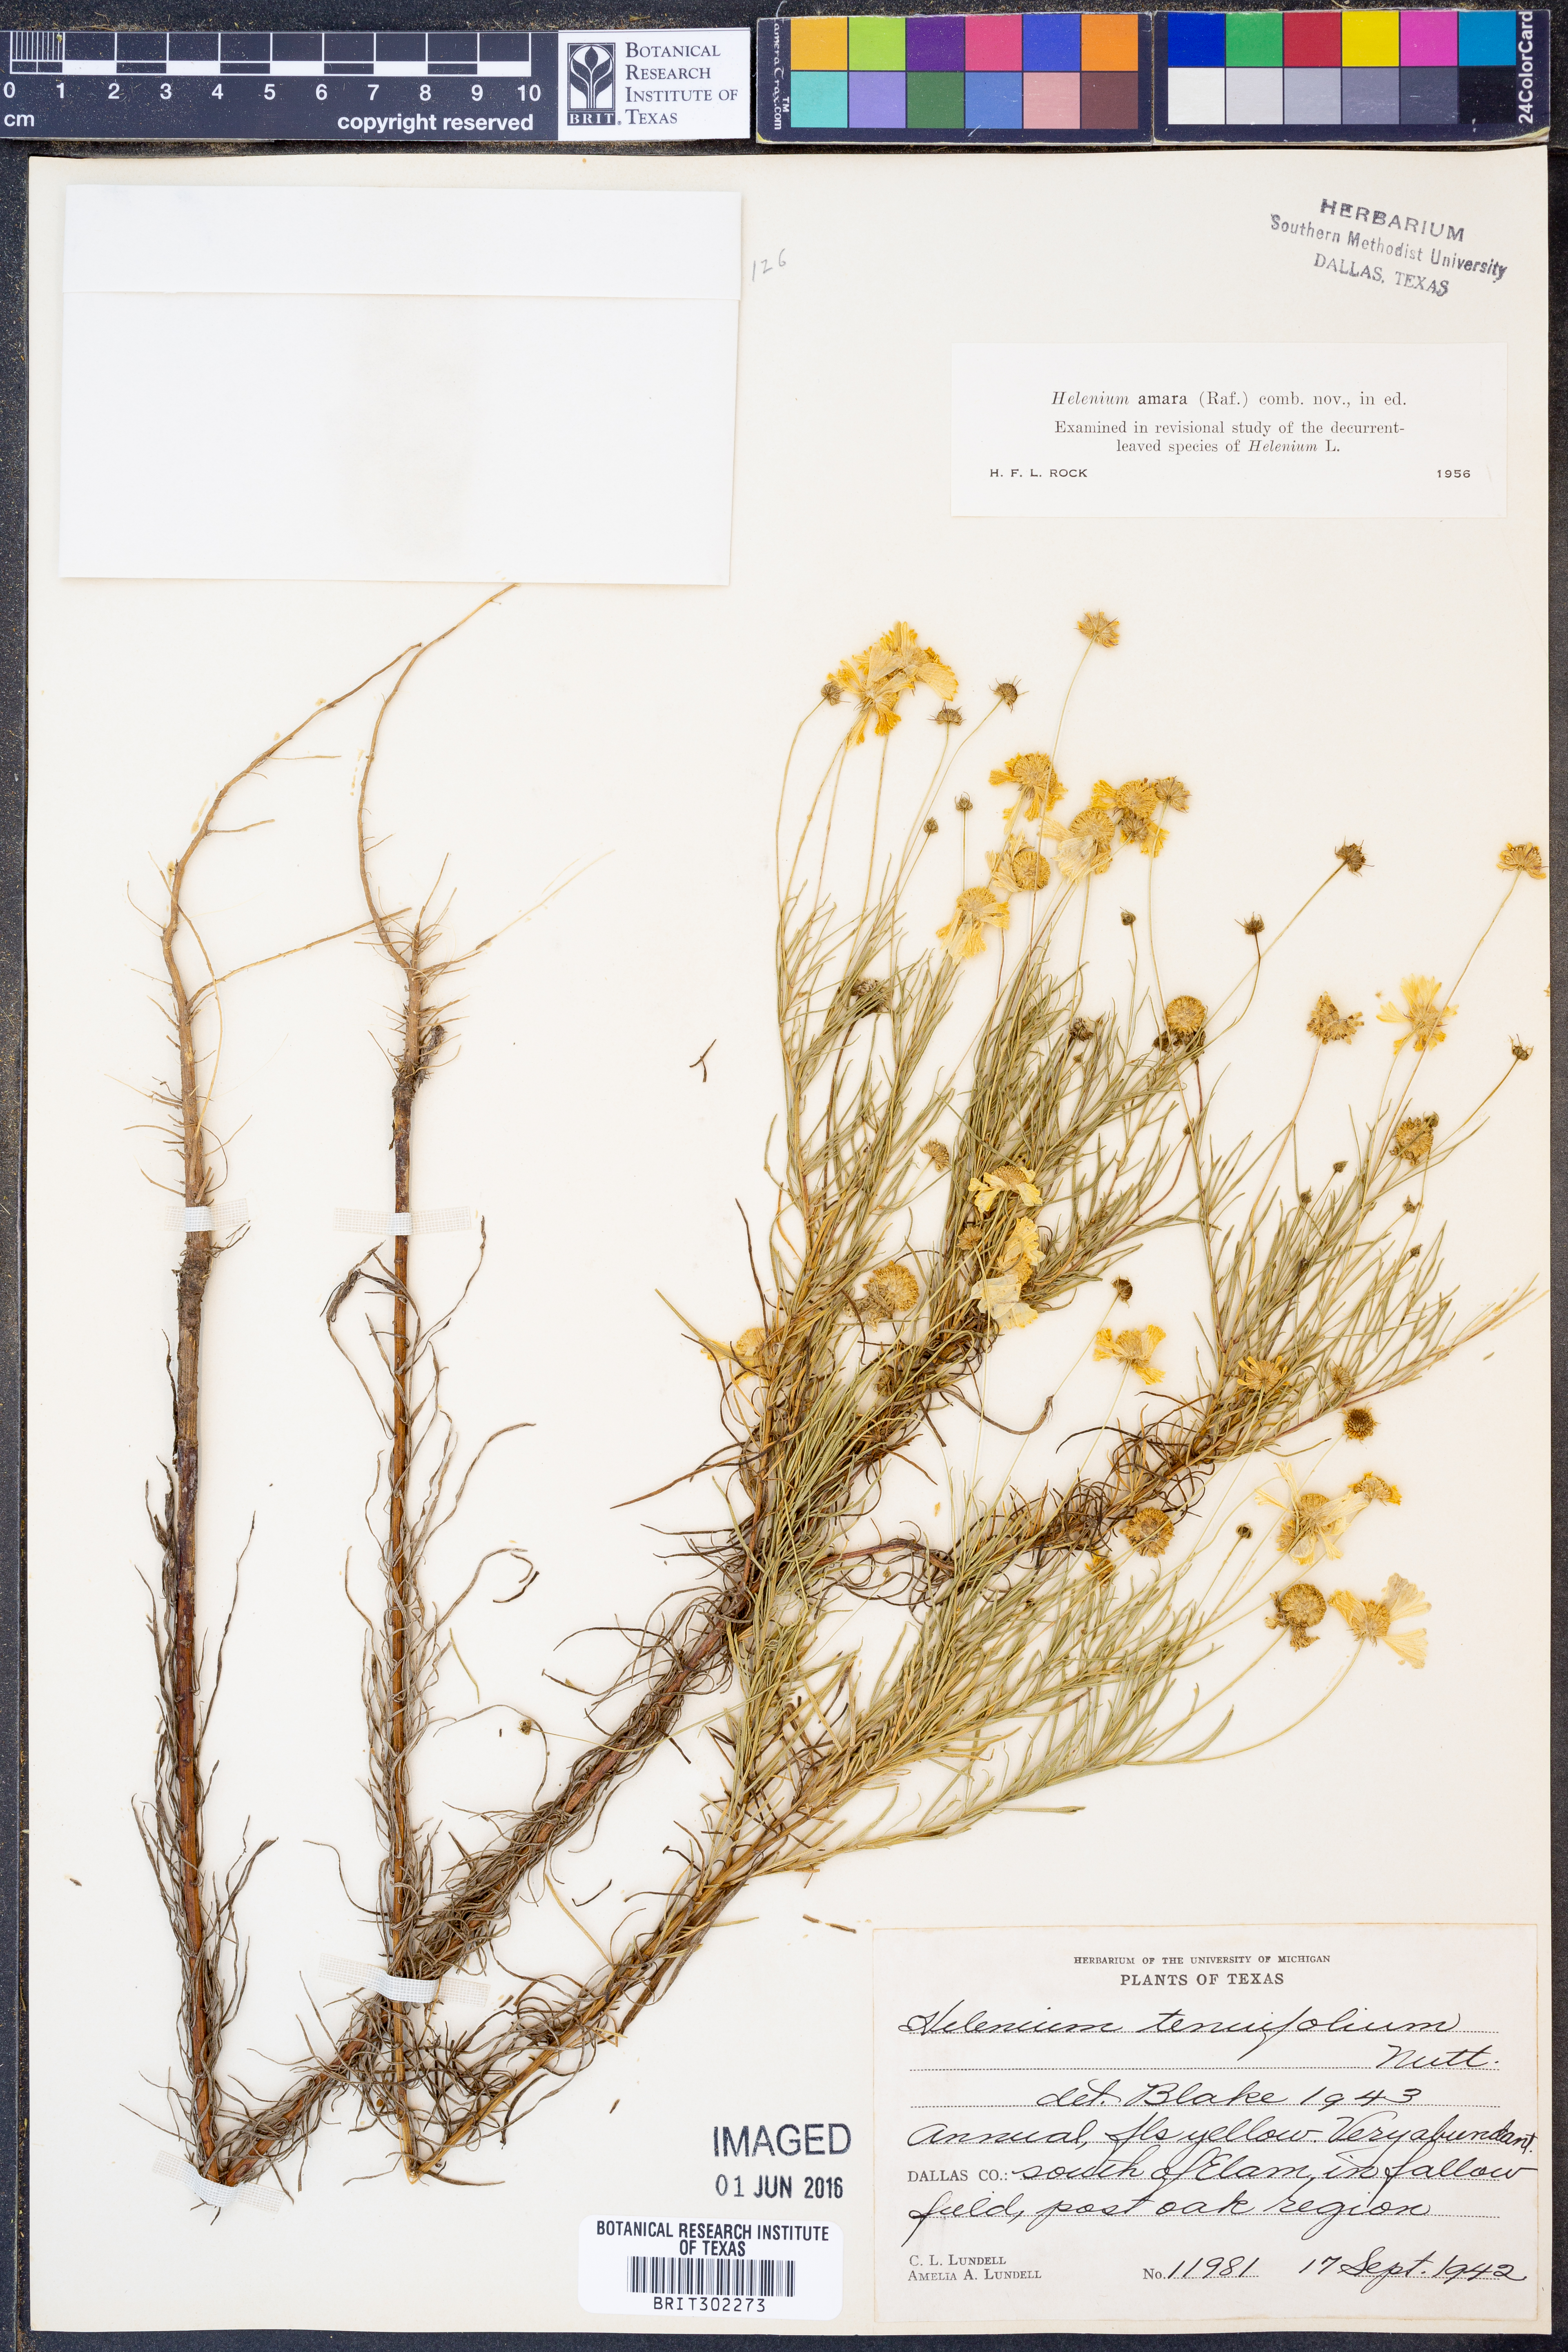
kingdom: Plantae
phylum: Tracheophyta
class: Magnoliopsida
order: Asterales
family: Asteraceae
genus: Helenium
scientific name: Helenium amarum
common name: Bitter sneezeweed
